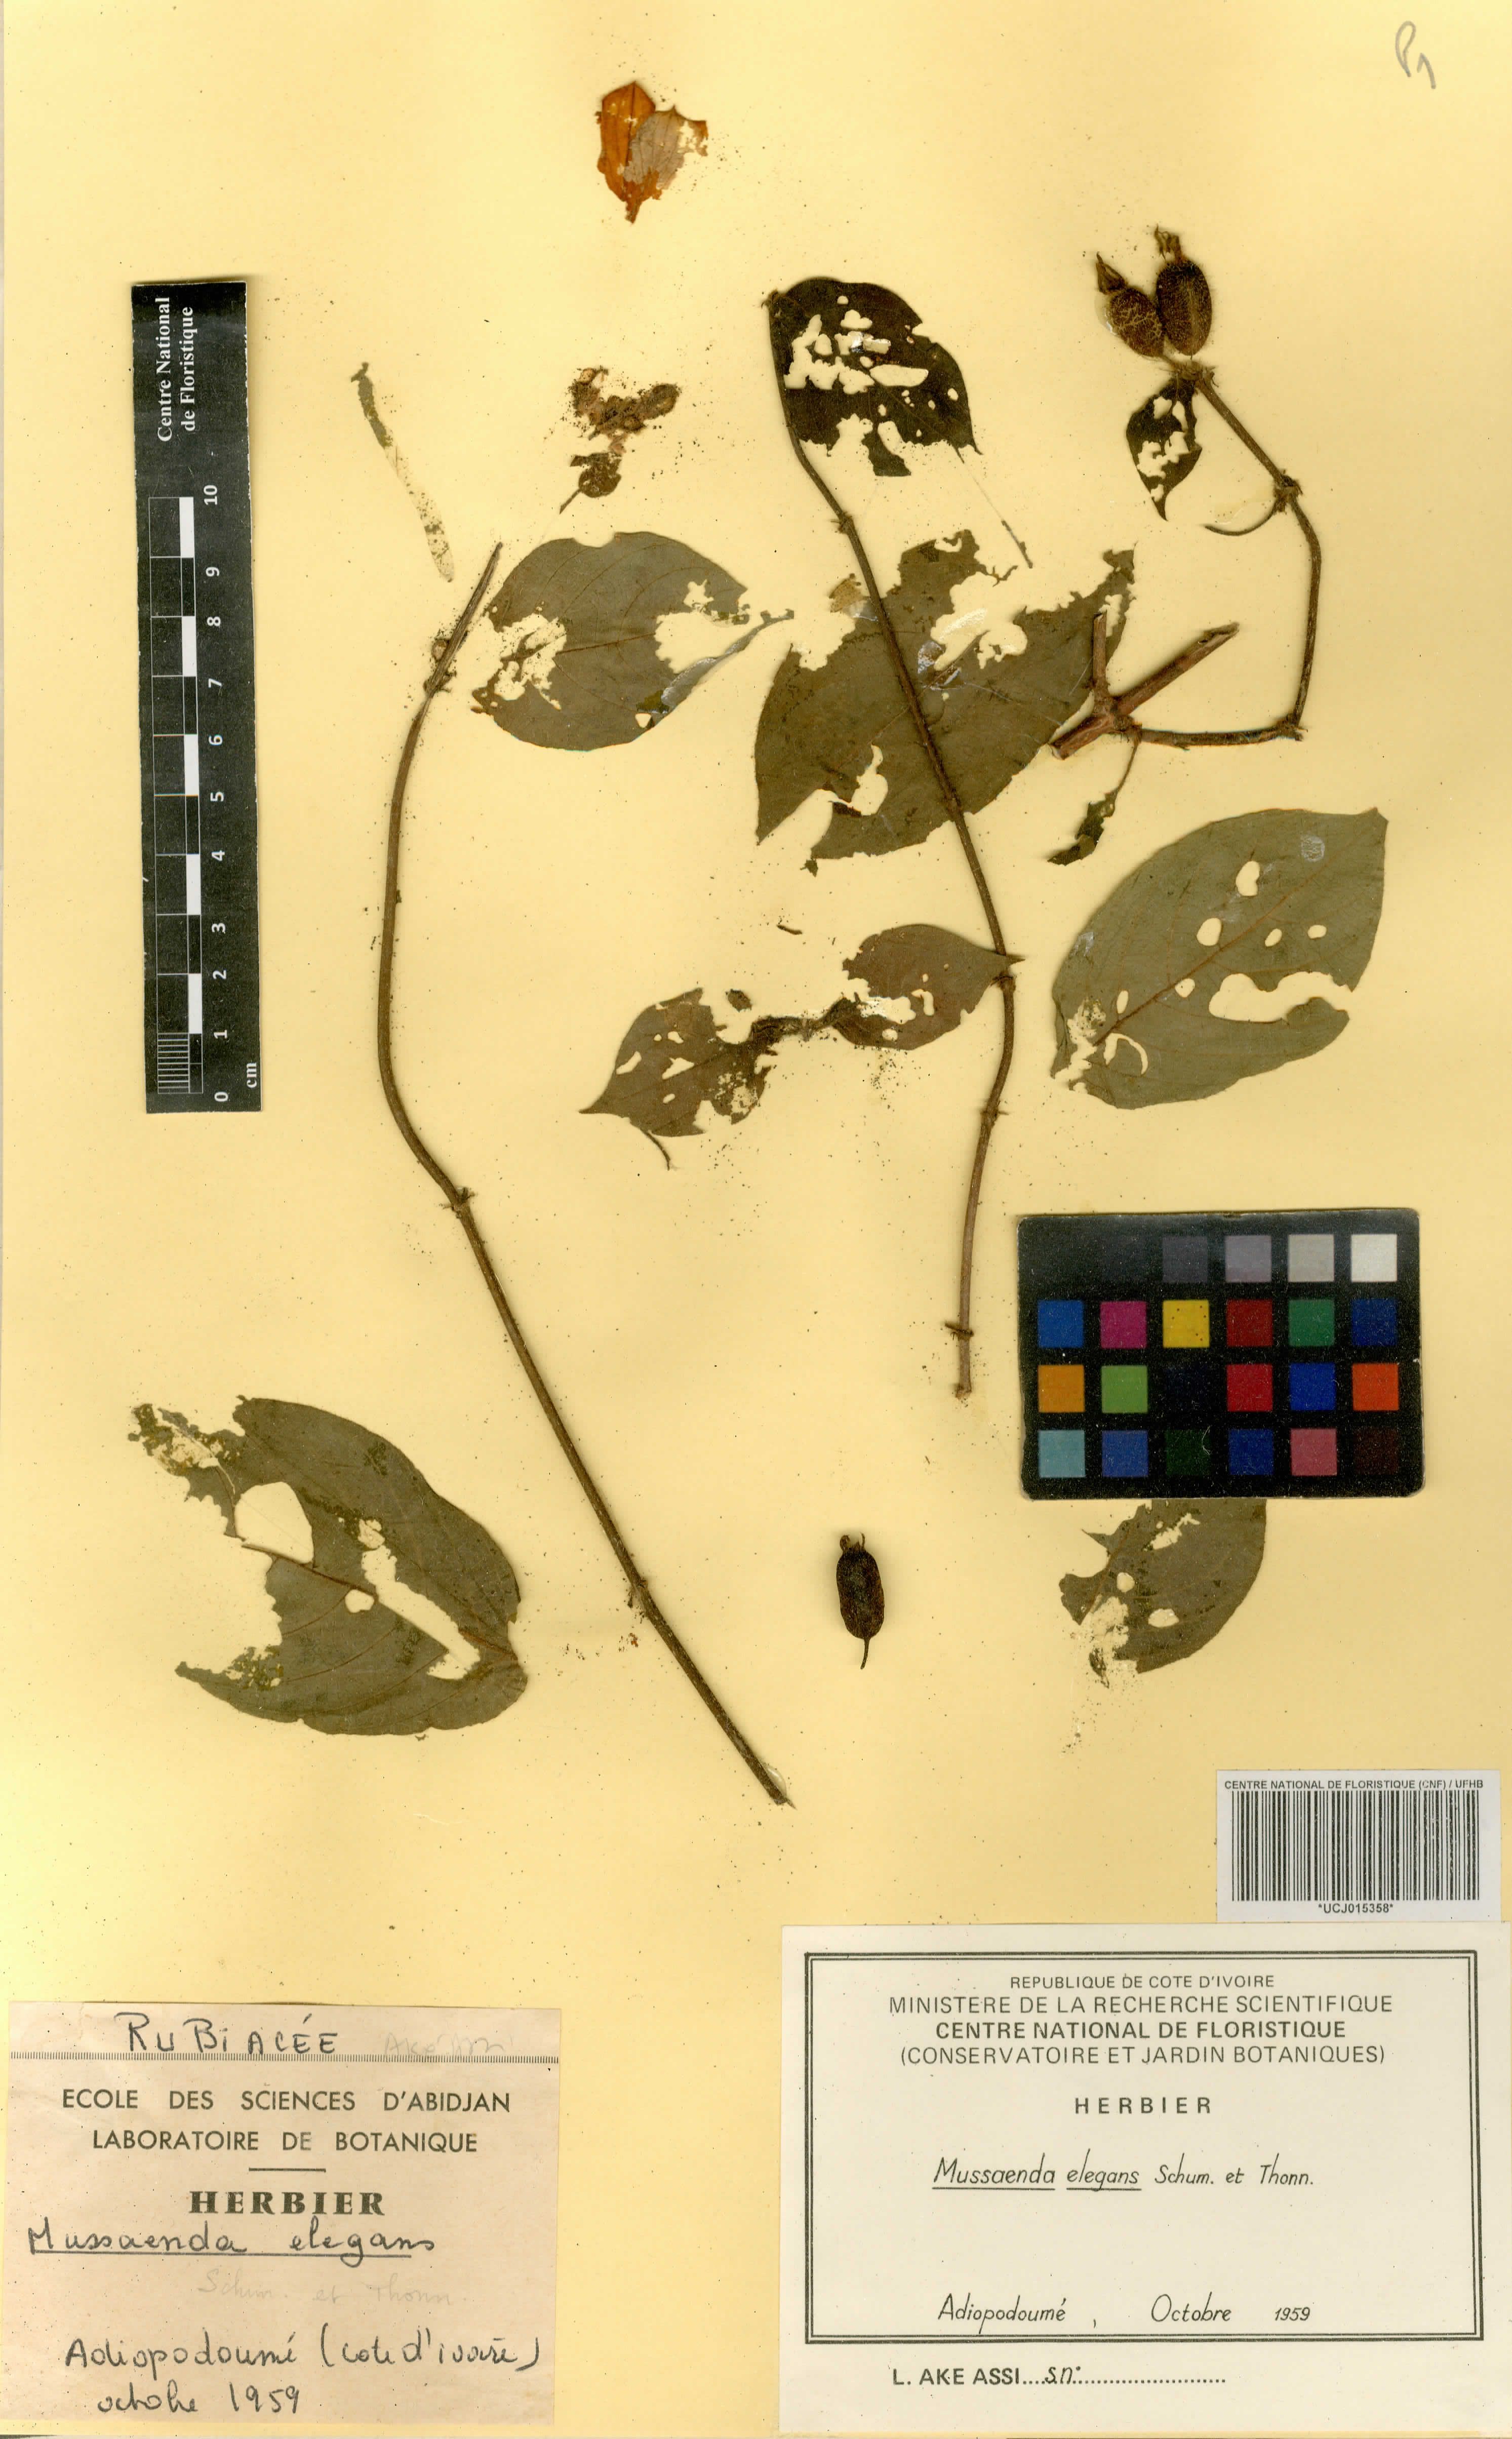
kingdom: Plantae
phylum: Tracheophyta
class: Magnoliopsida
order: Gentianales
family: Rubiaceae
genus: Mussaenda
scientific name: Mussaenda elegans
